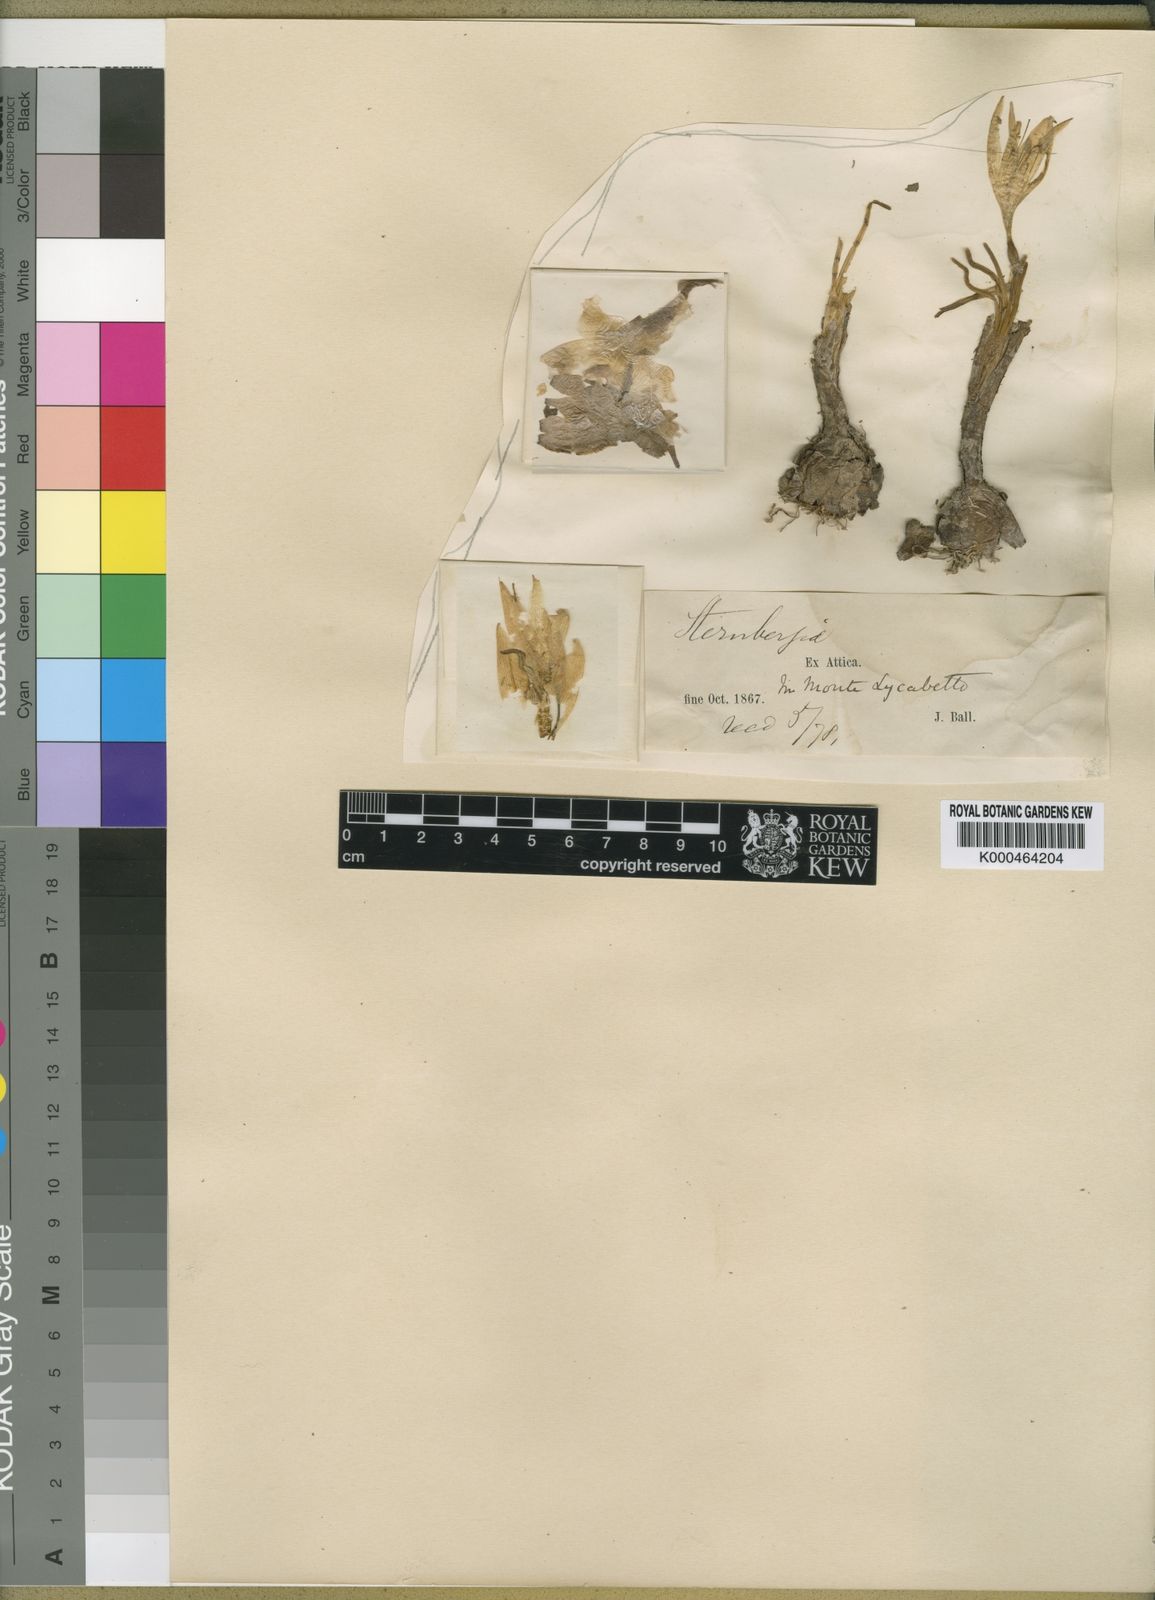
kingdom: Plantae
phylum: Tracheophyta
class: Liliopsida
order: Asparagales
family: Amaryllidaceae
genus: Sternbergia
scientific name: Sternbergia
